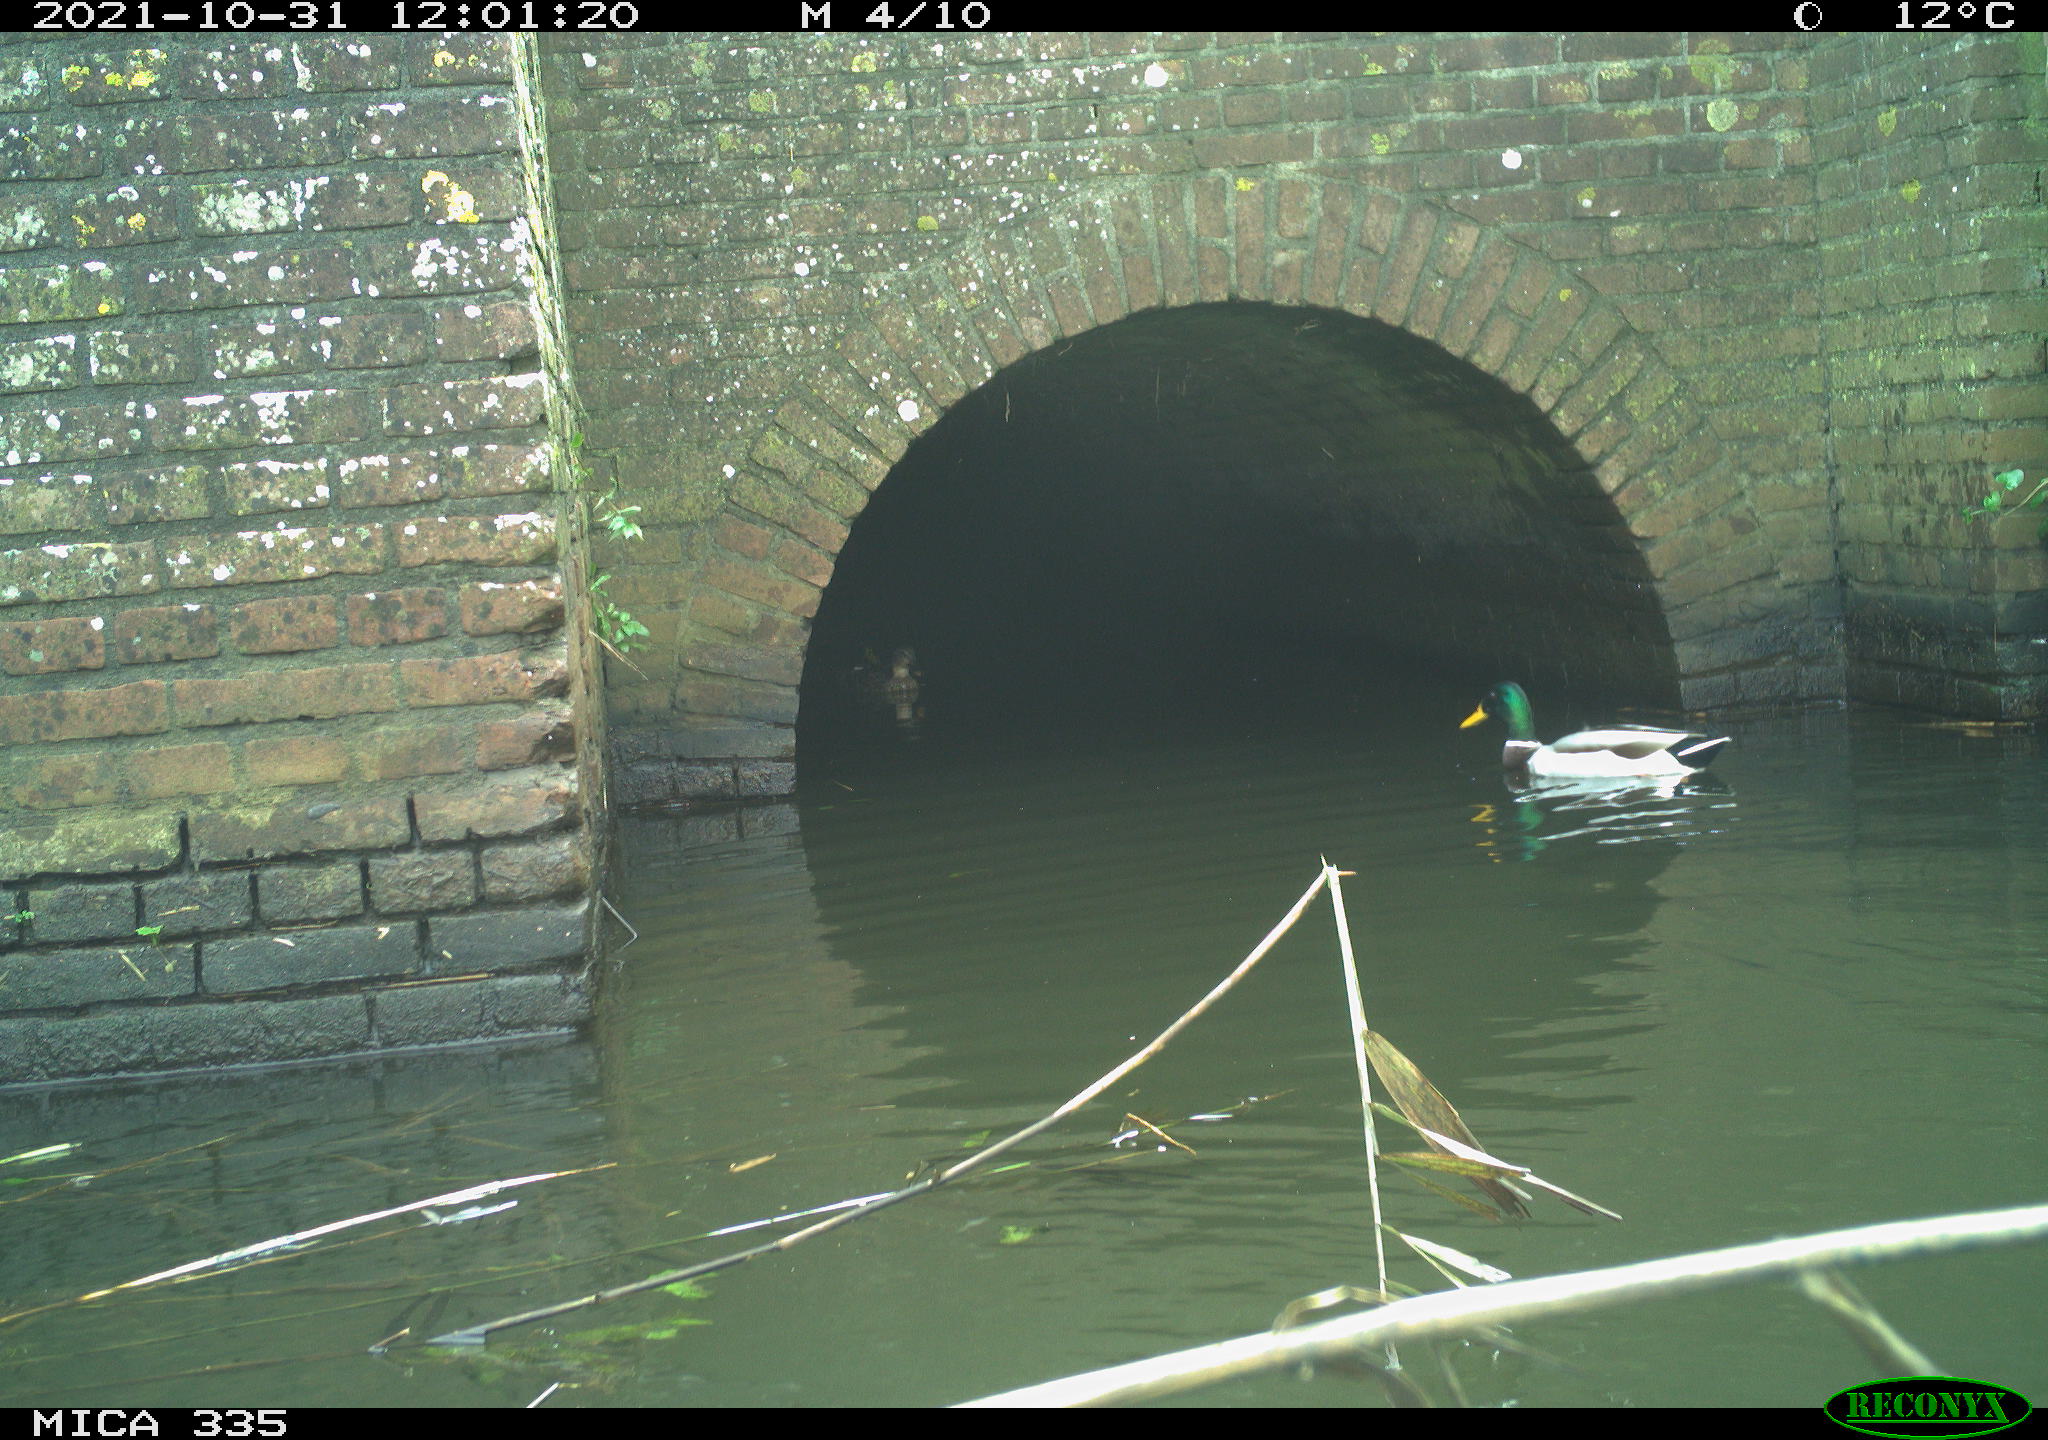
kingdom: Animalia
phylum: Chordata
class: Aves
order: Suliformes
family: Phalacrocoracidae
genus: Phalacrocorax
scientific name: Phalacrocorax carbo
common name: Great cormorant
